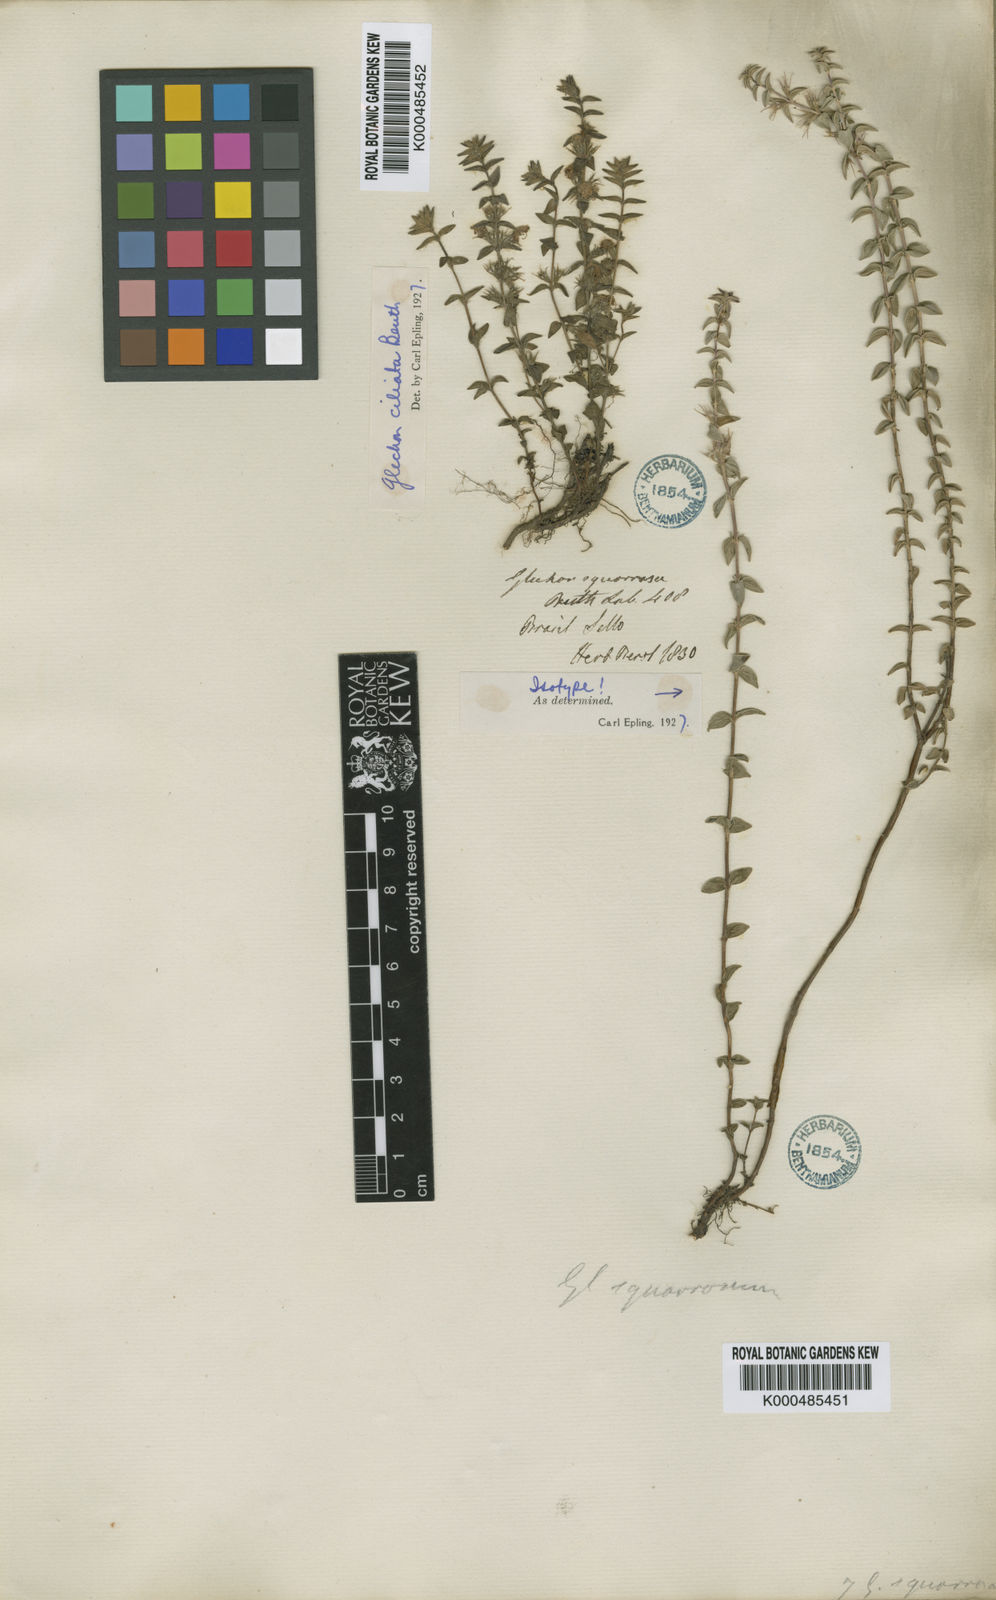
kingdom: Plantae
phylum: Tracheophyta
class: Magnoliopsida
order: Lamiales
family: Lamiaceae
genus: Glechon
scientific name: Glechon ciliata
